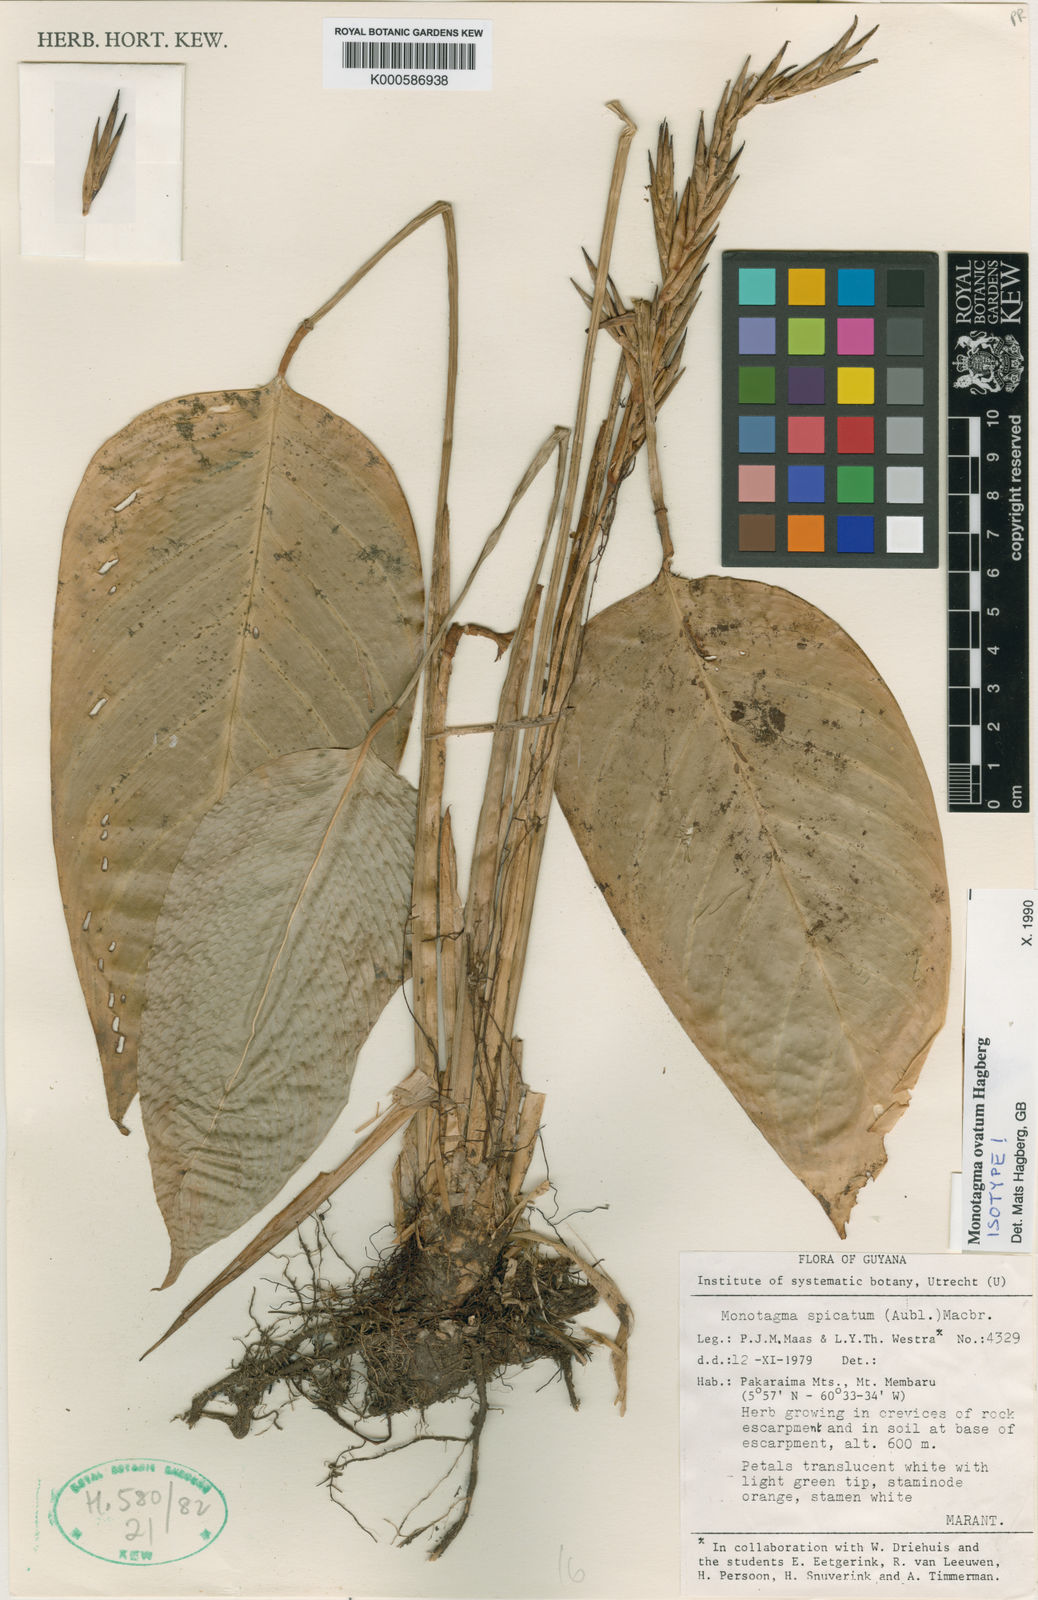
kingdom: Plantae
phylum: Tracheophyta
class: Liliopsida
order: Zingiberales
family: Marantaceae
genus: Monotagma
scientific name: Monotagma ovatum
